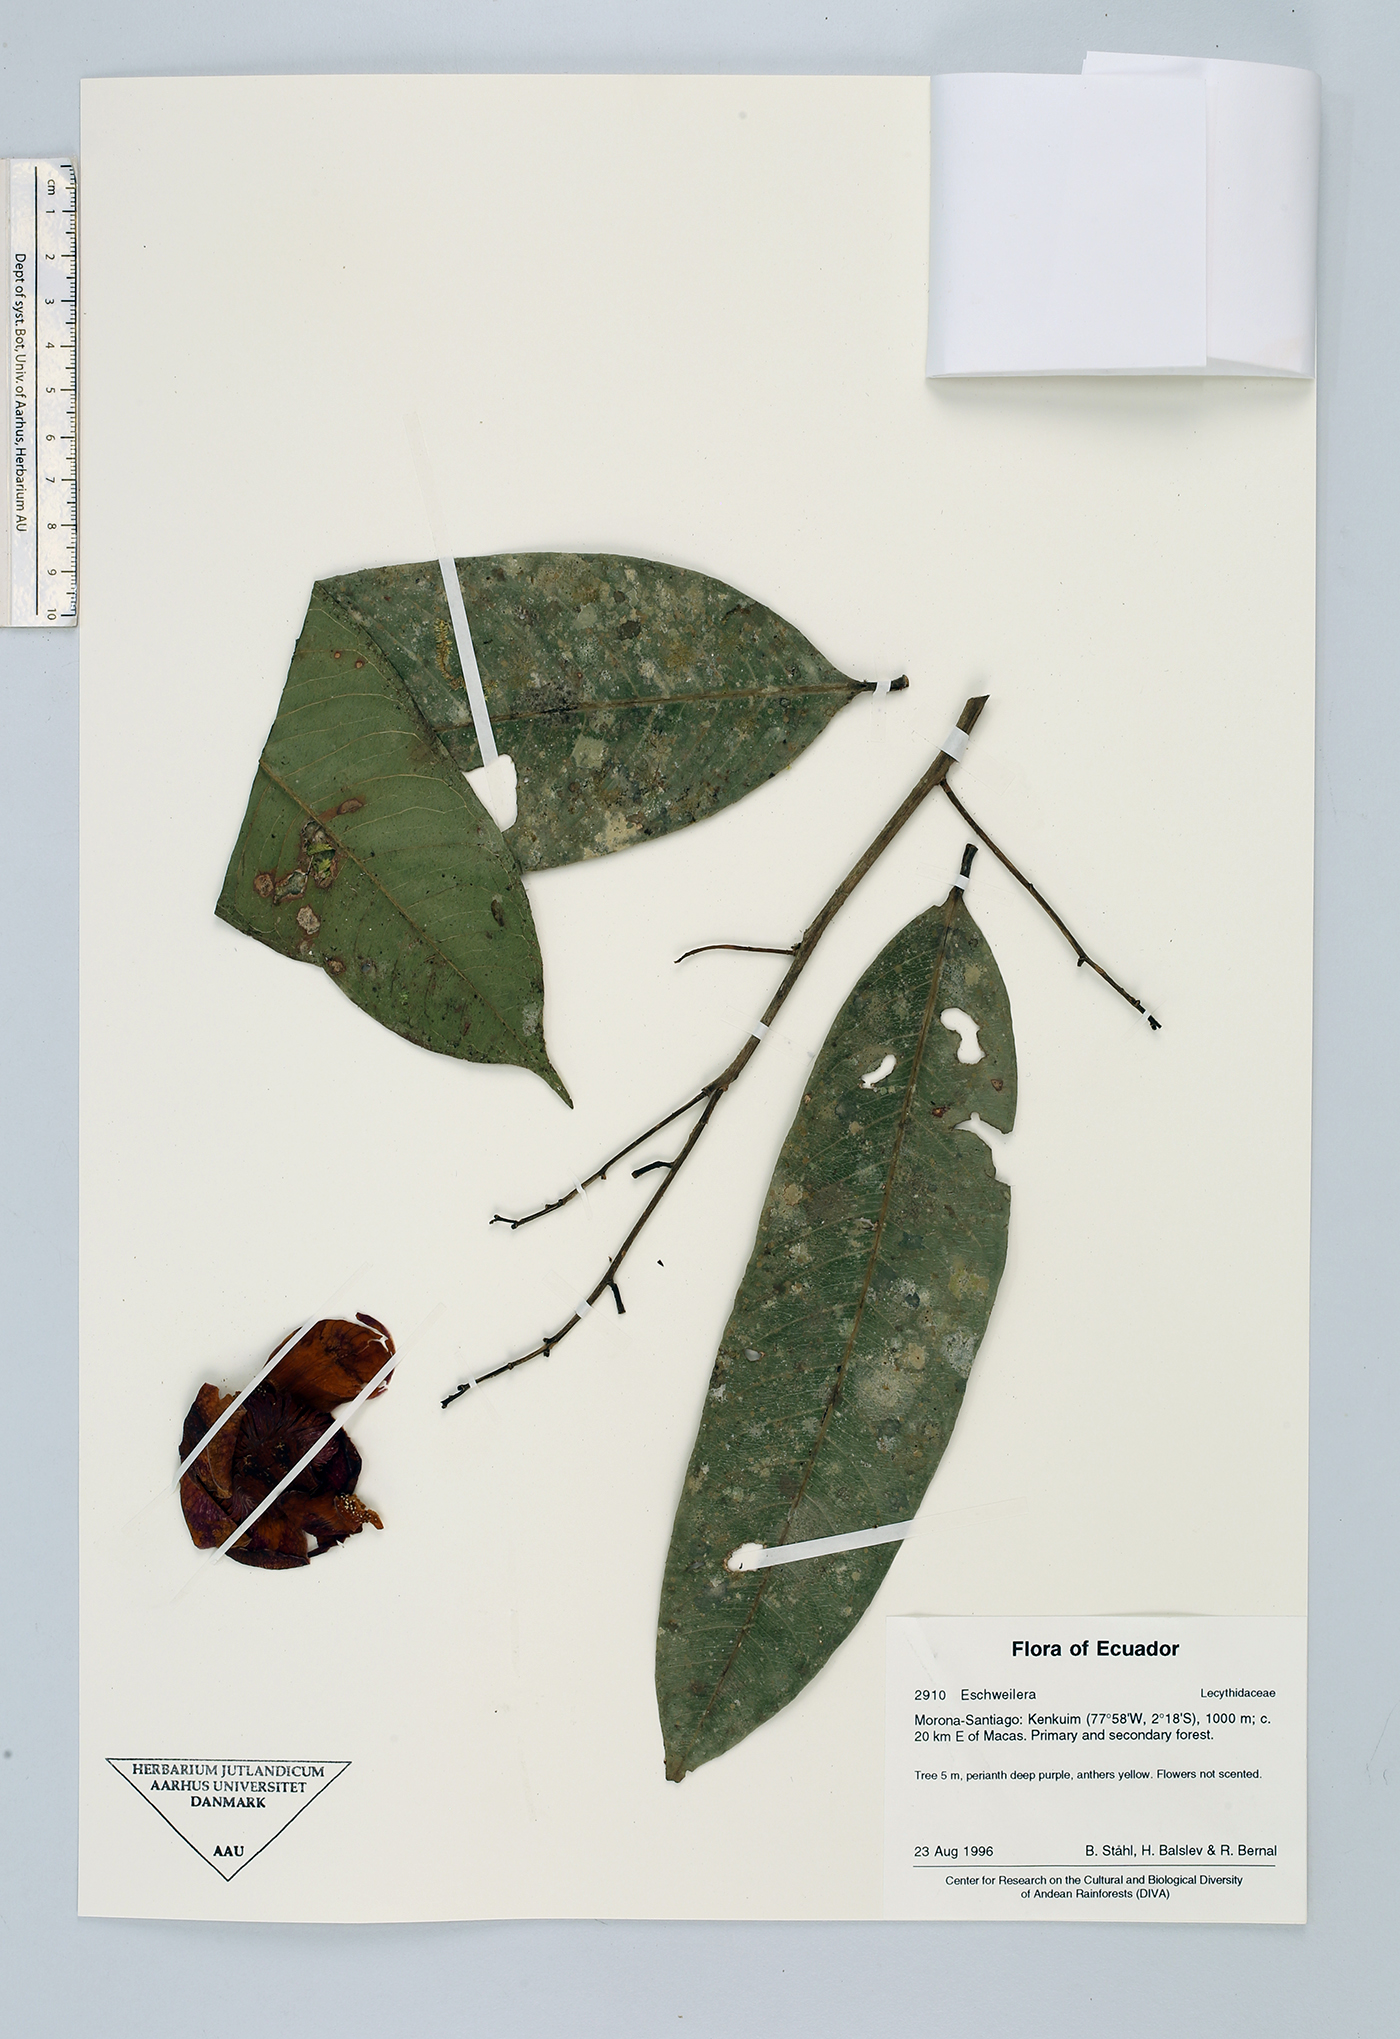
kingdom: Plantae
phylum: Tracheophyta
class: Magnoliopsida
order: Ericales
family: Lecythidaceae
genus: Eschweilera
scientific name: Eschweilera
